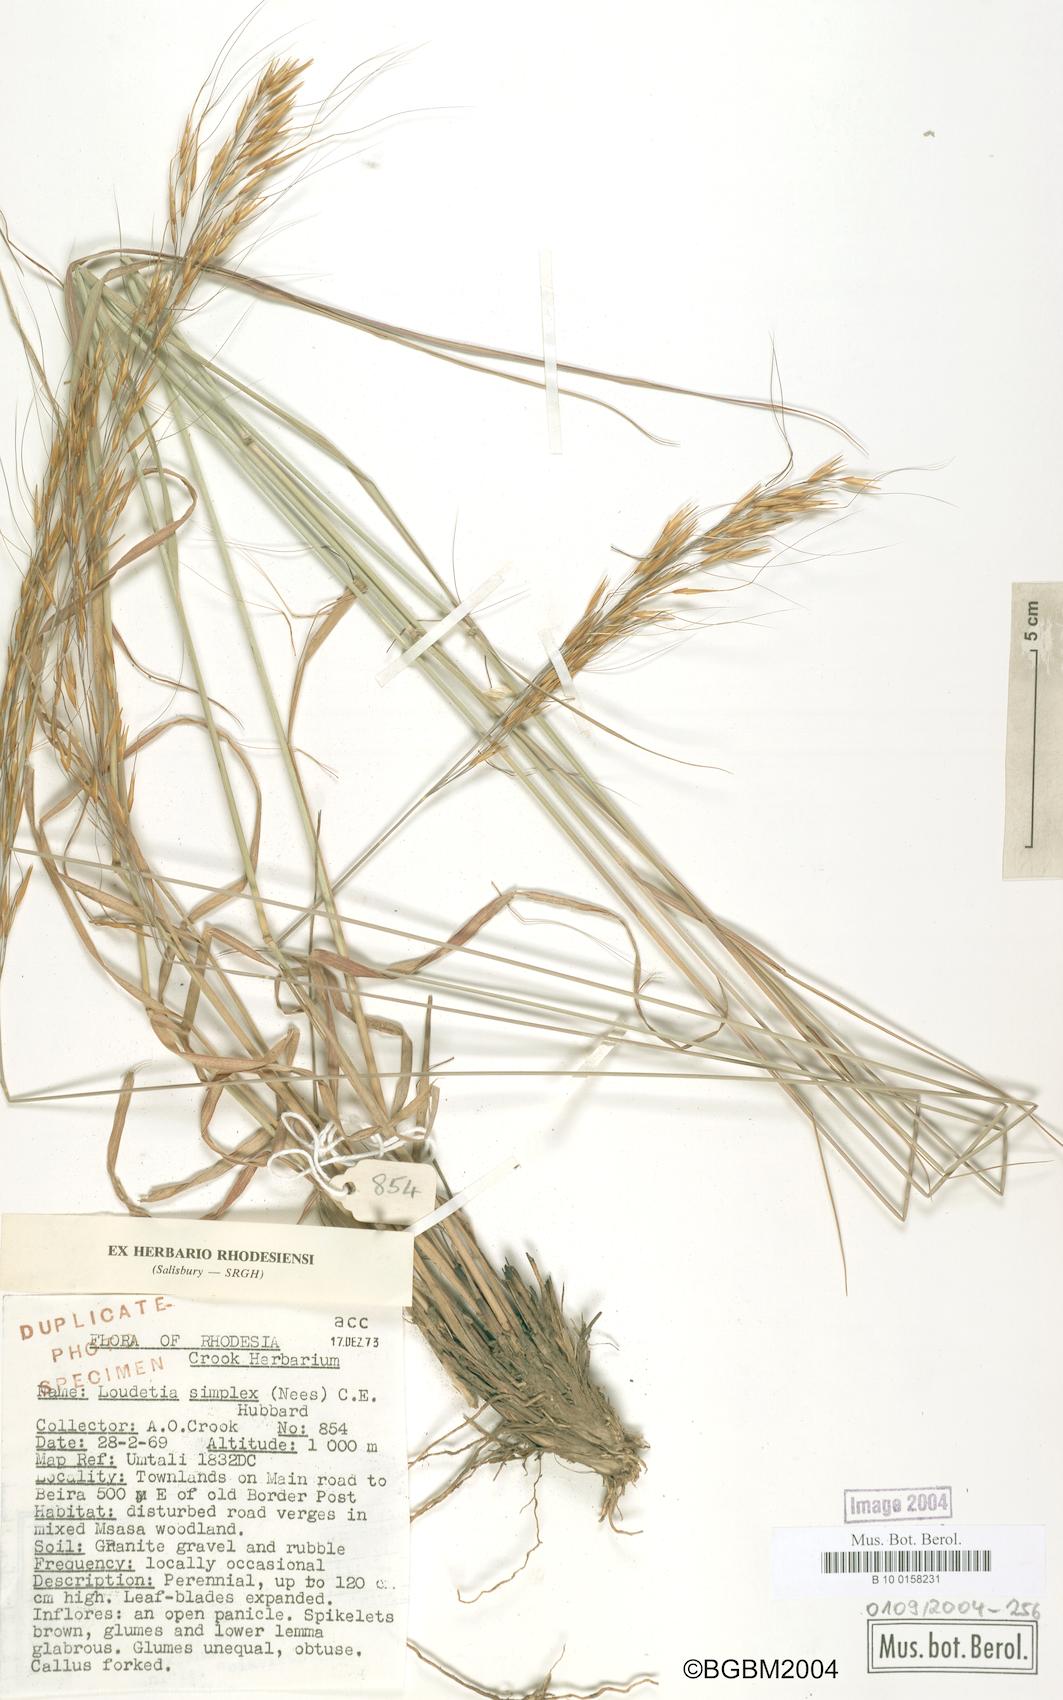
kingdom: Plantae
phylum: Tracheophyta
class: Liliopsida
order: Poales
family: Poaceae
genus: Loudetia
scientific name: Loudetia simplex
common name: Common russet grass
